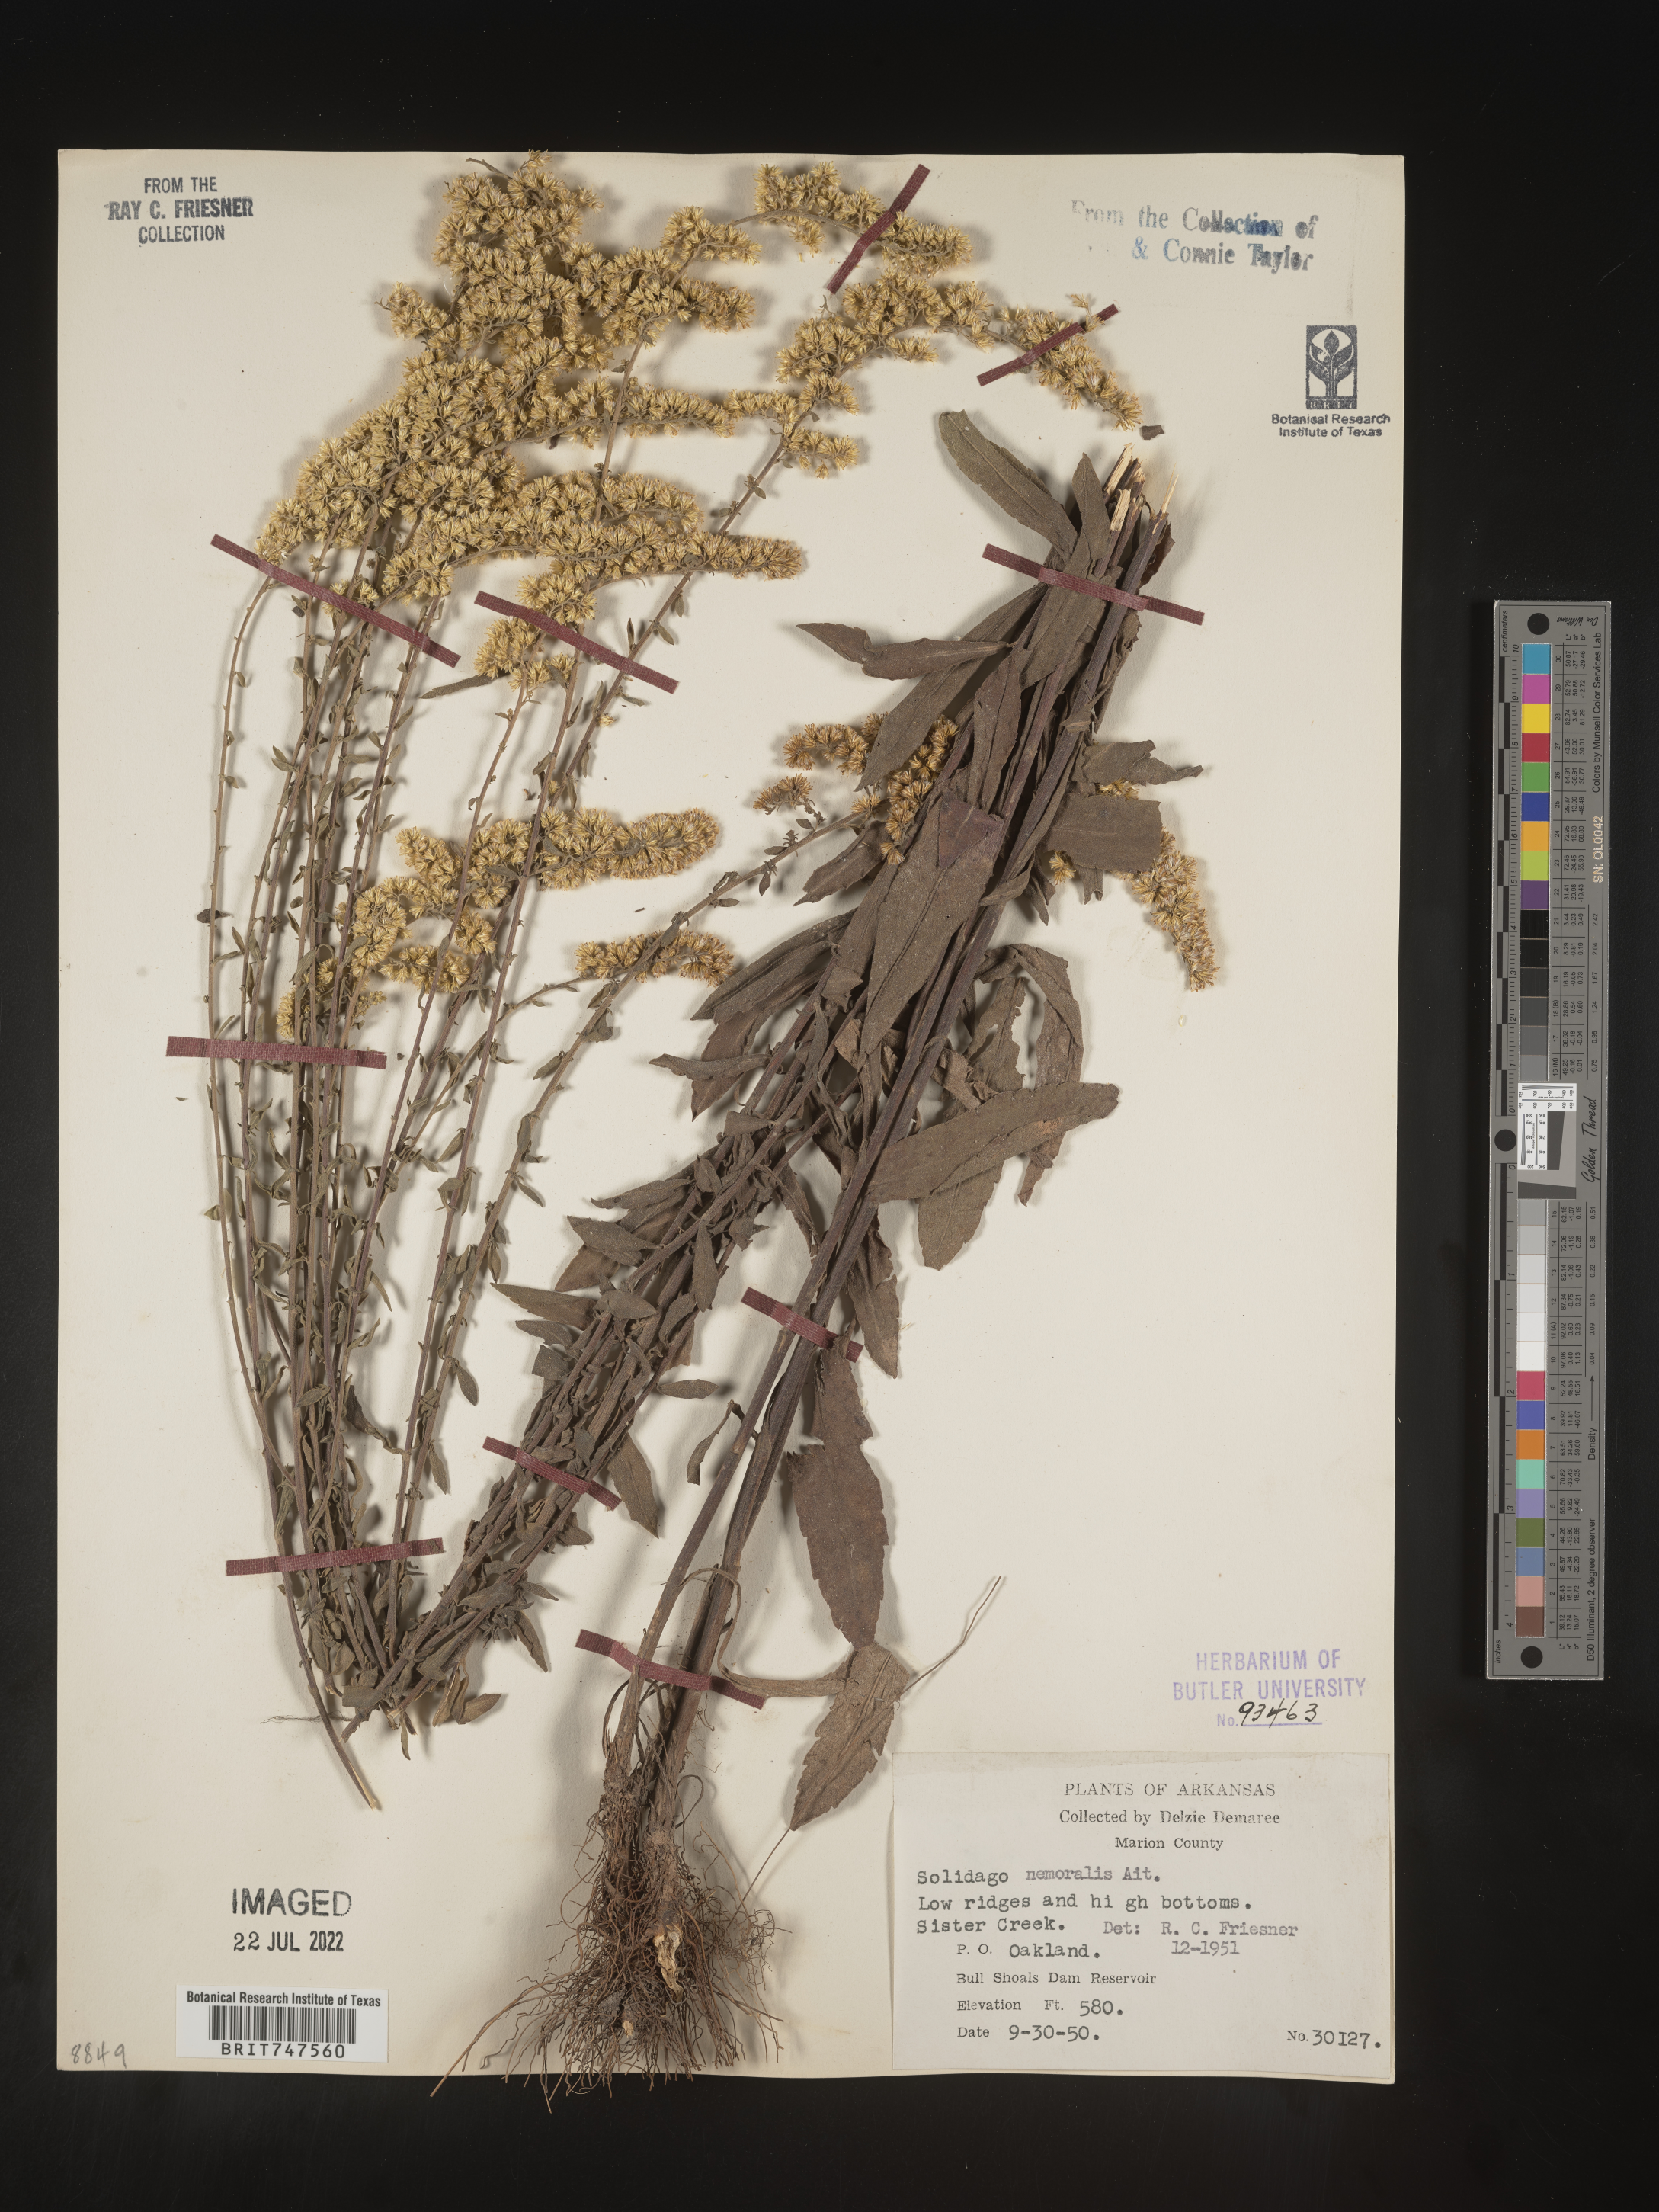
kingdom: Plantae
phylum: Tracheophyta
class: Magnoliopsida
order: Asterales
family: Asteraceae
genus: Solidago
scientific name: Solidago nemoralis
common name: Grey goldenrod
